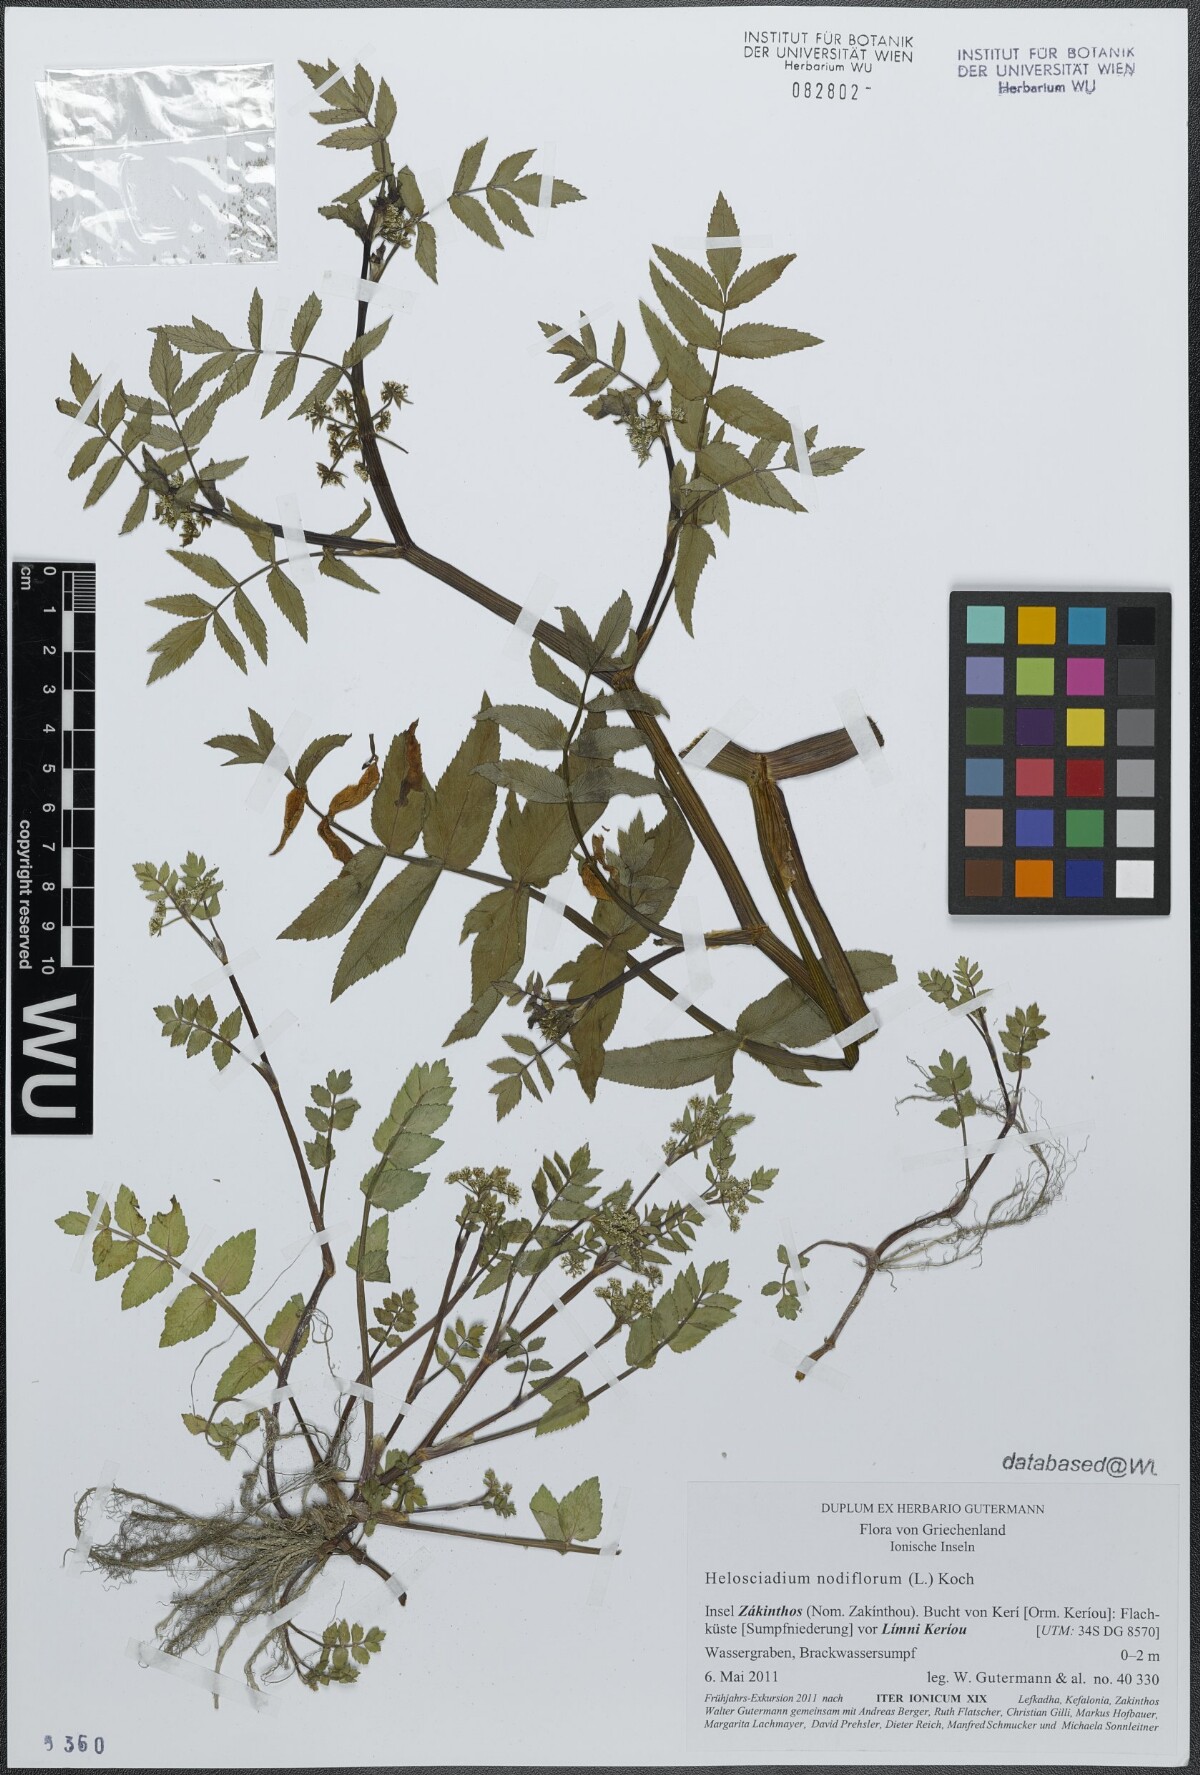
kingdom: Plantae
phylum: Tracheophyta
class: Magnoliopsida
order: Apiales
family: Apiaceae
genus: Helosciadium
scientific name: Helosciadium nodiflorum
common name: Fool's-watercress
